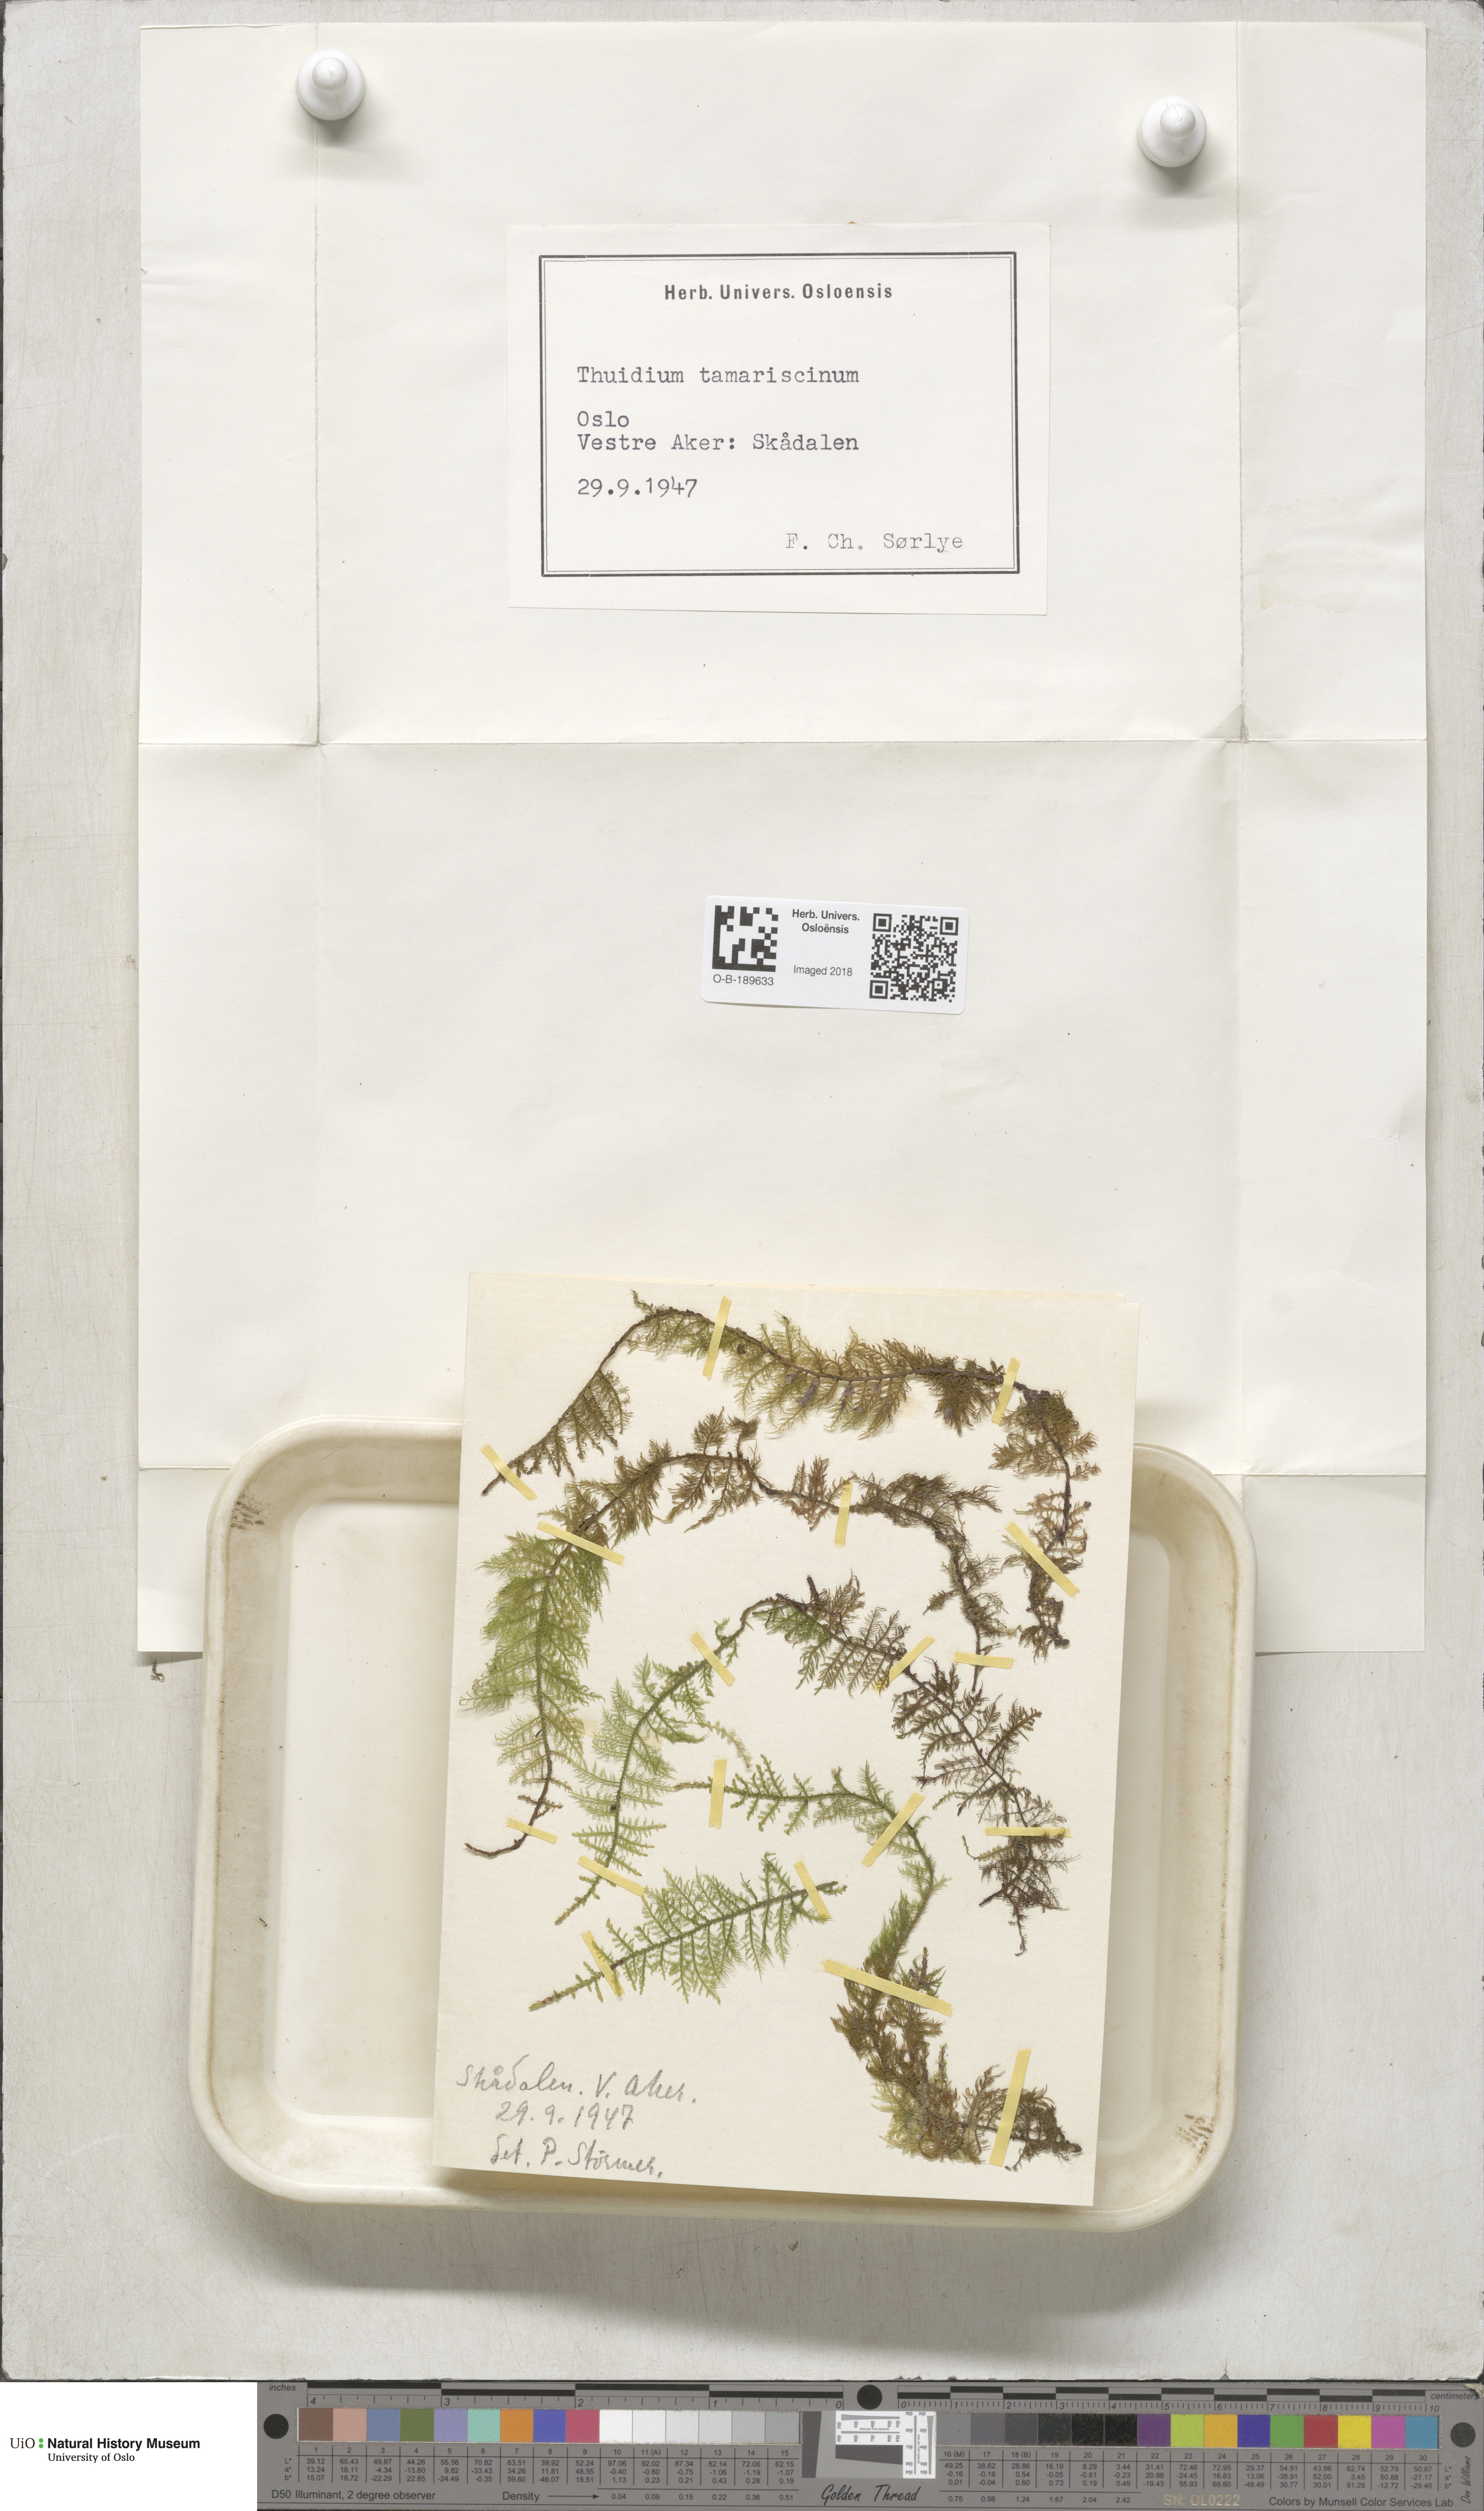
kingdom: Plantae
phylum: Bryophyta
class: Bryopsida
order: Hypnales
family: Thuidiaceae
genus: Thuidium
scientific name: Thuidium tamariscinum
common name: Common tamarisk-moss
